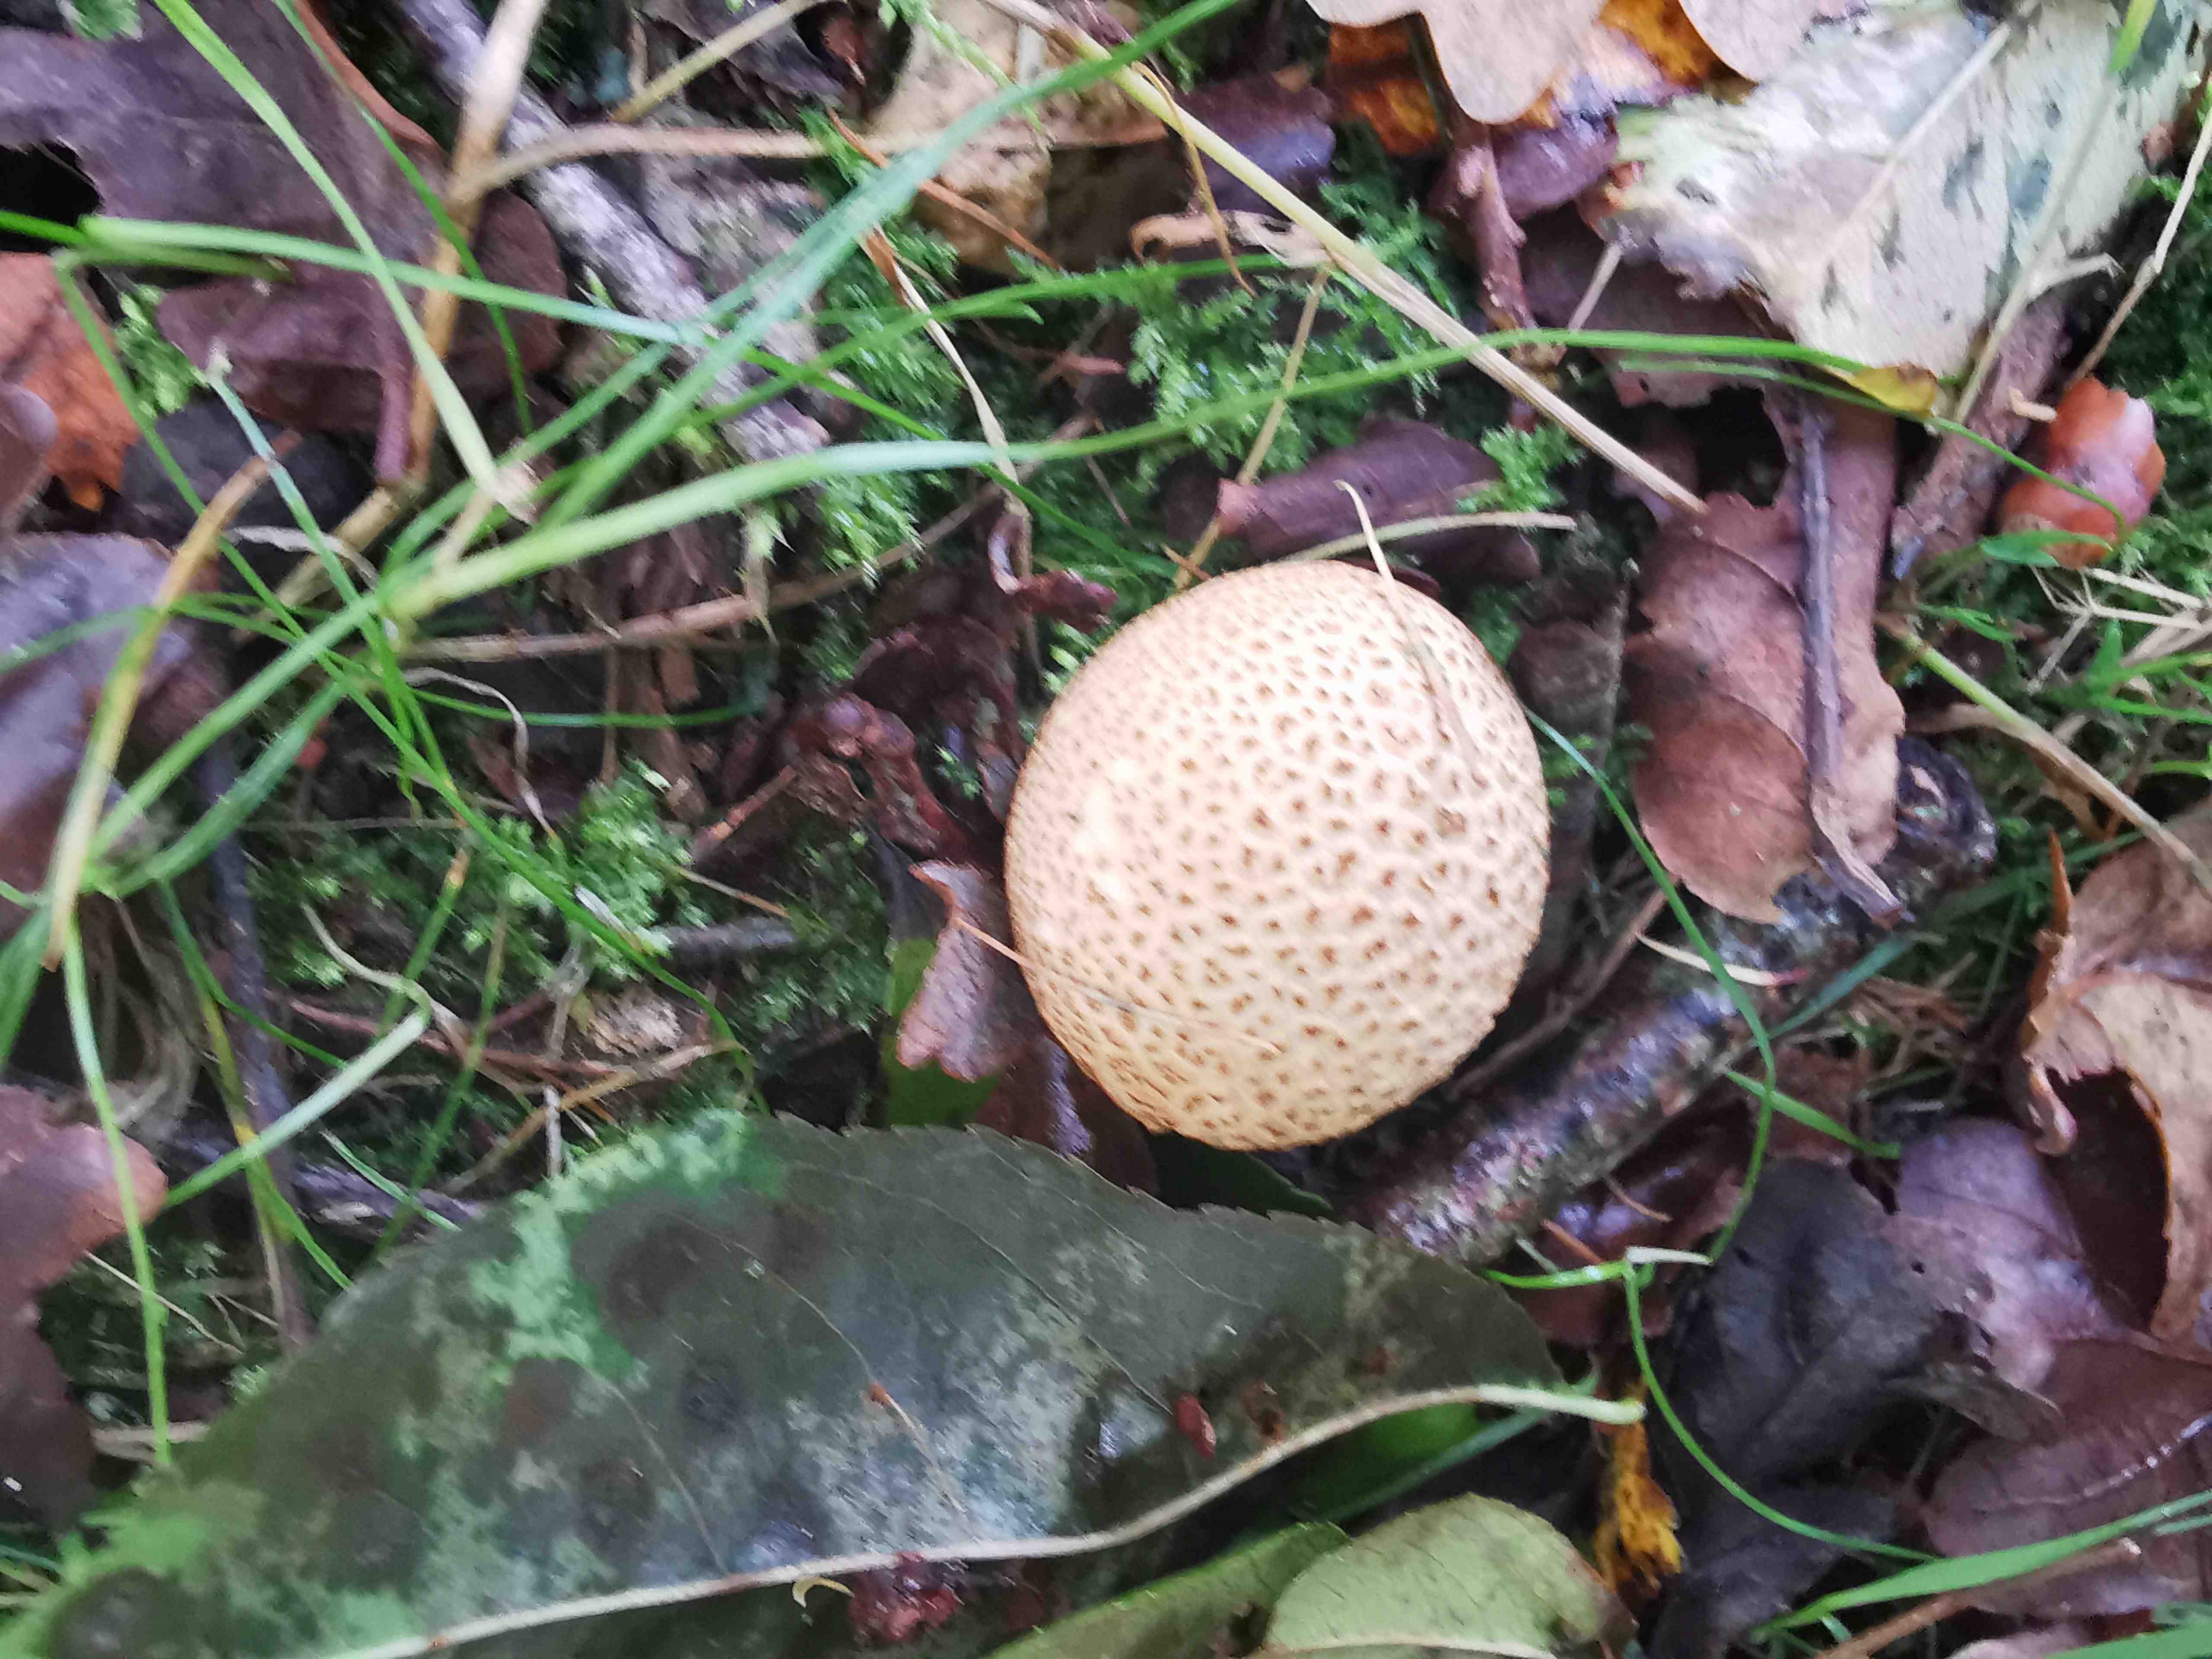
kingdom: Fungi
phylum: Basidiomycota
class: Agaricomycetes
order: Boletales
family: Sclerodermataceae
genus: Scleroderma
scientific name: Scleroderma citrinum
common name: almindelig bruskbold
